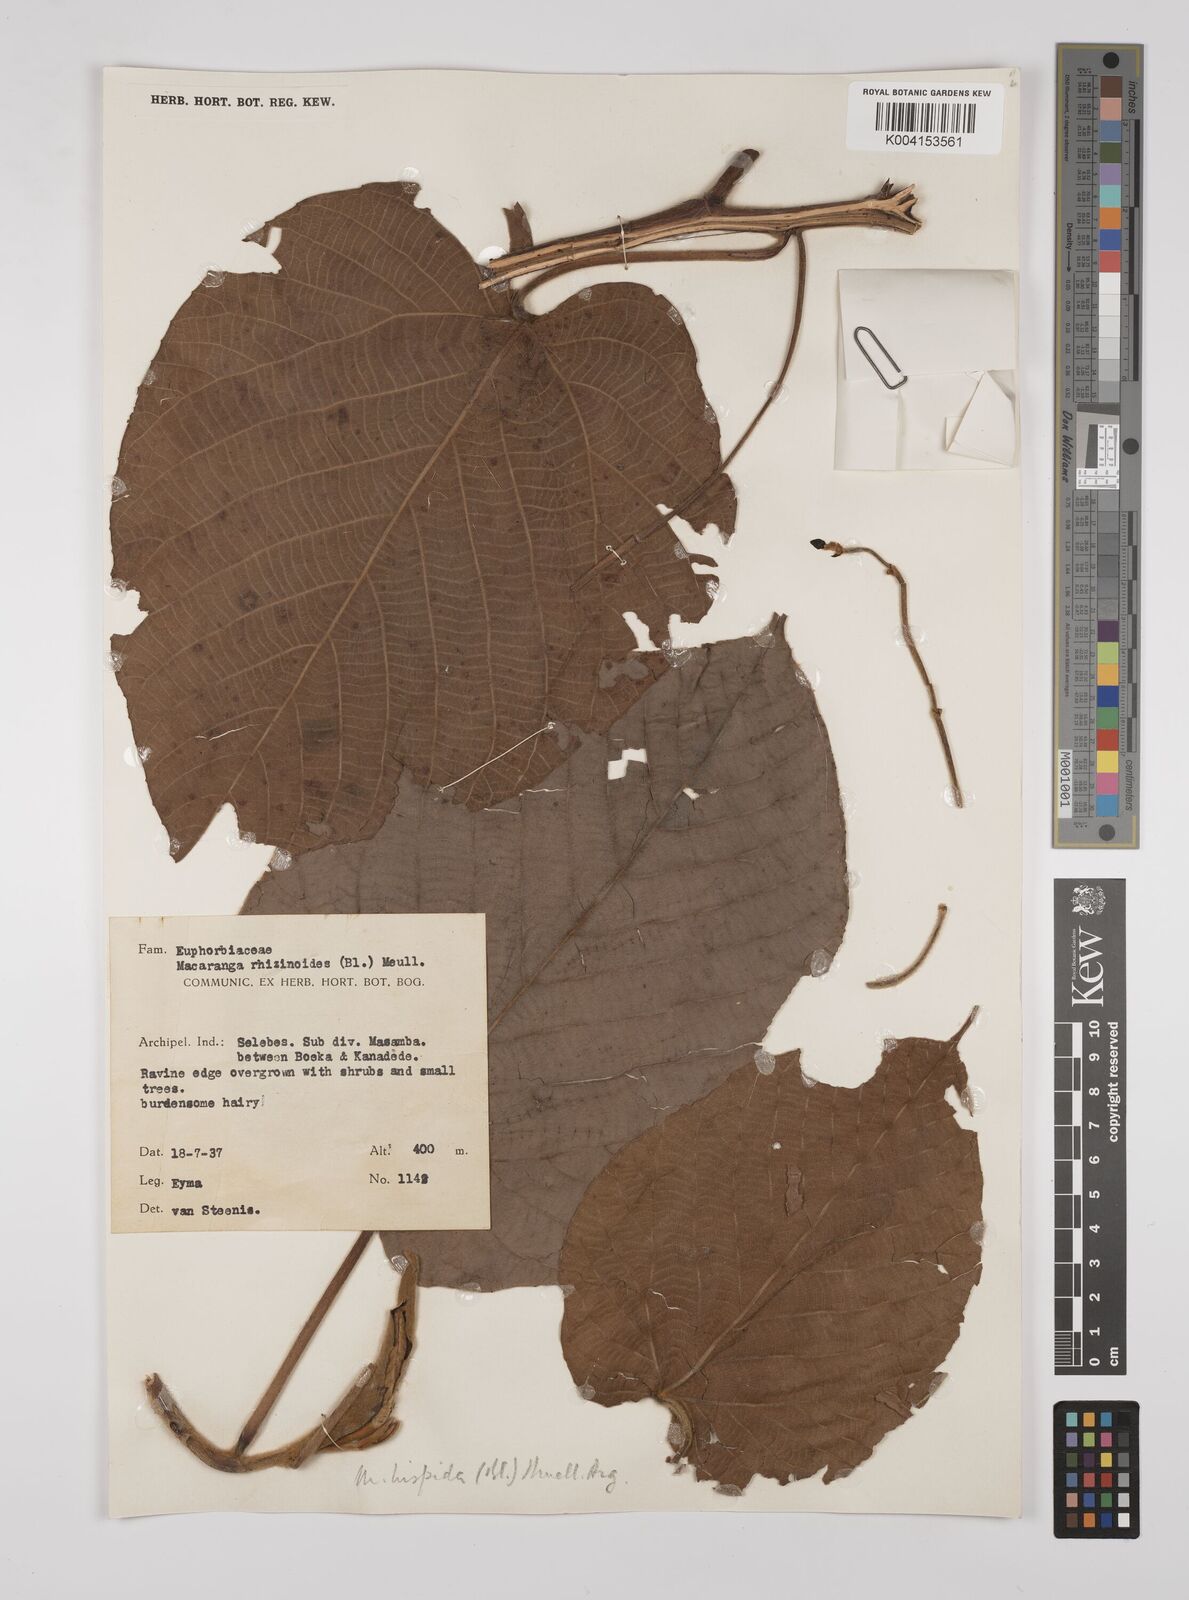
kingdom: Plantae
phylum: Tracheophyta
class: Magnoliopsida
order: Malpighiales
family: Euphorbiaceae
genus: Macaranga
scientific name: Macaranga hispida
